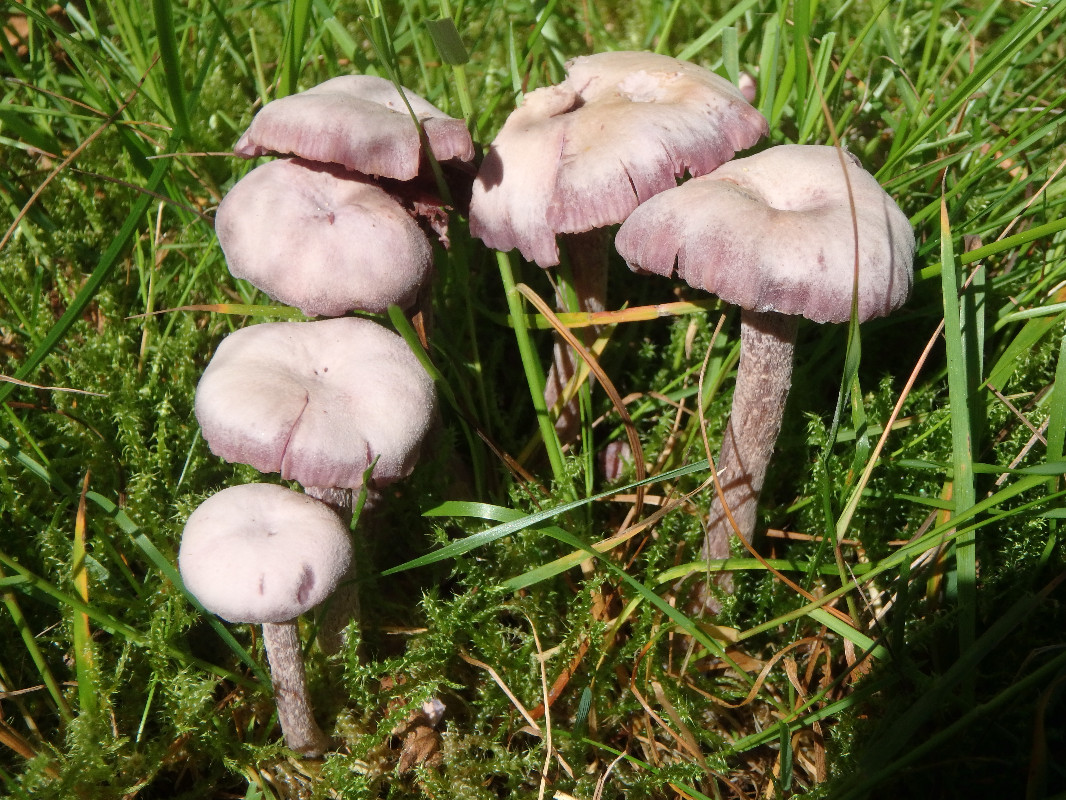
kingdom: Fungi
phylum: Basidiomycota
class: Agaricomycetes
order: Agaricales
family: Hydnangiaceae
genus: Laccaria
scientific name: Laccaria amethystina
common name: violet ametysthat
